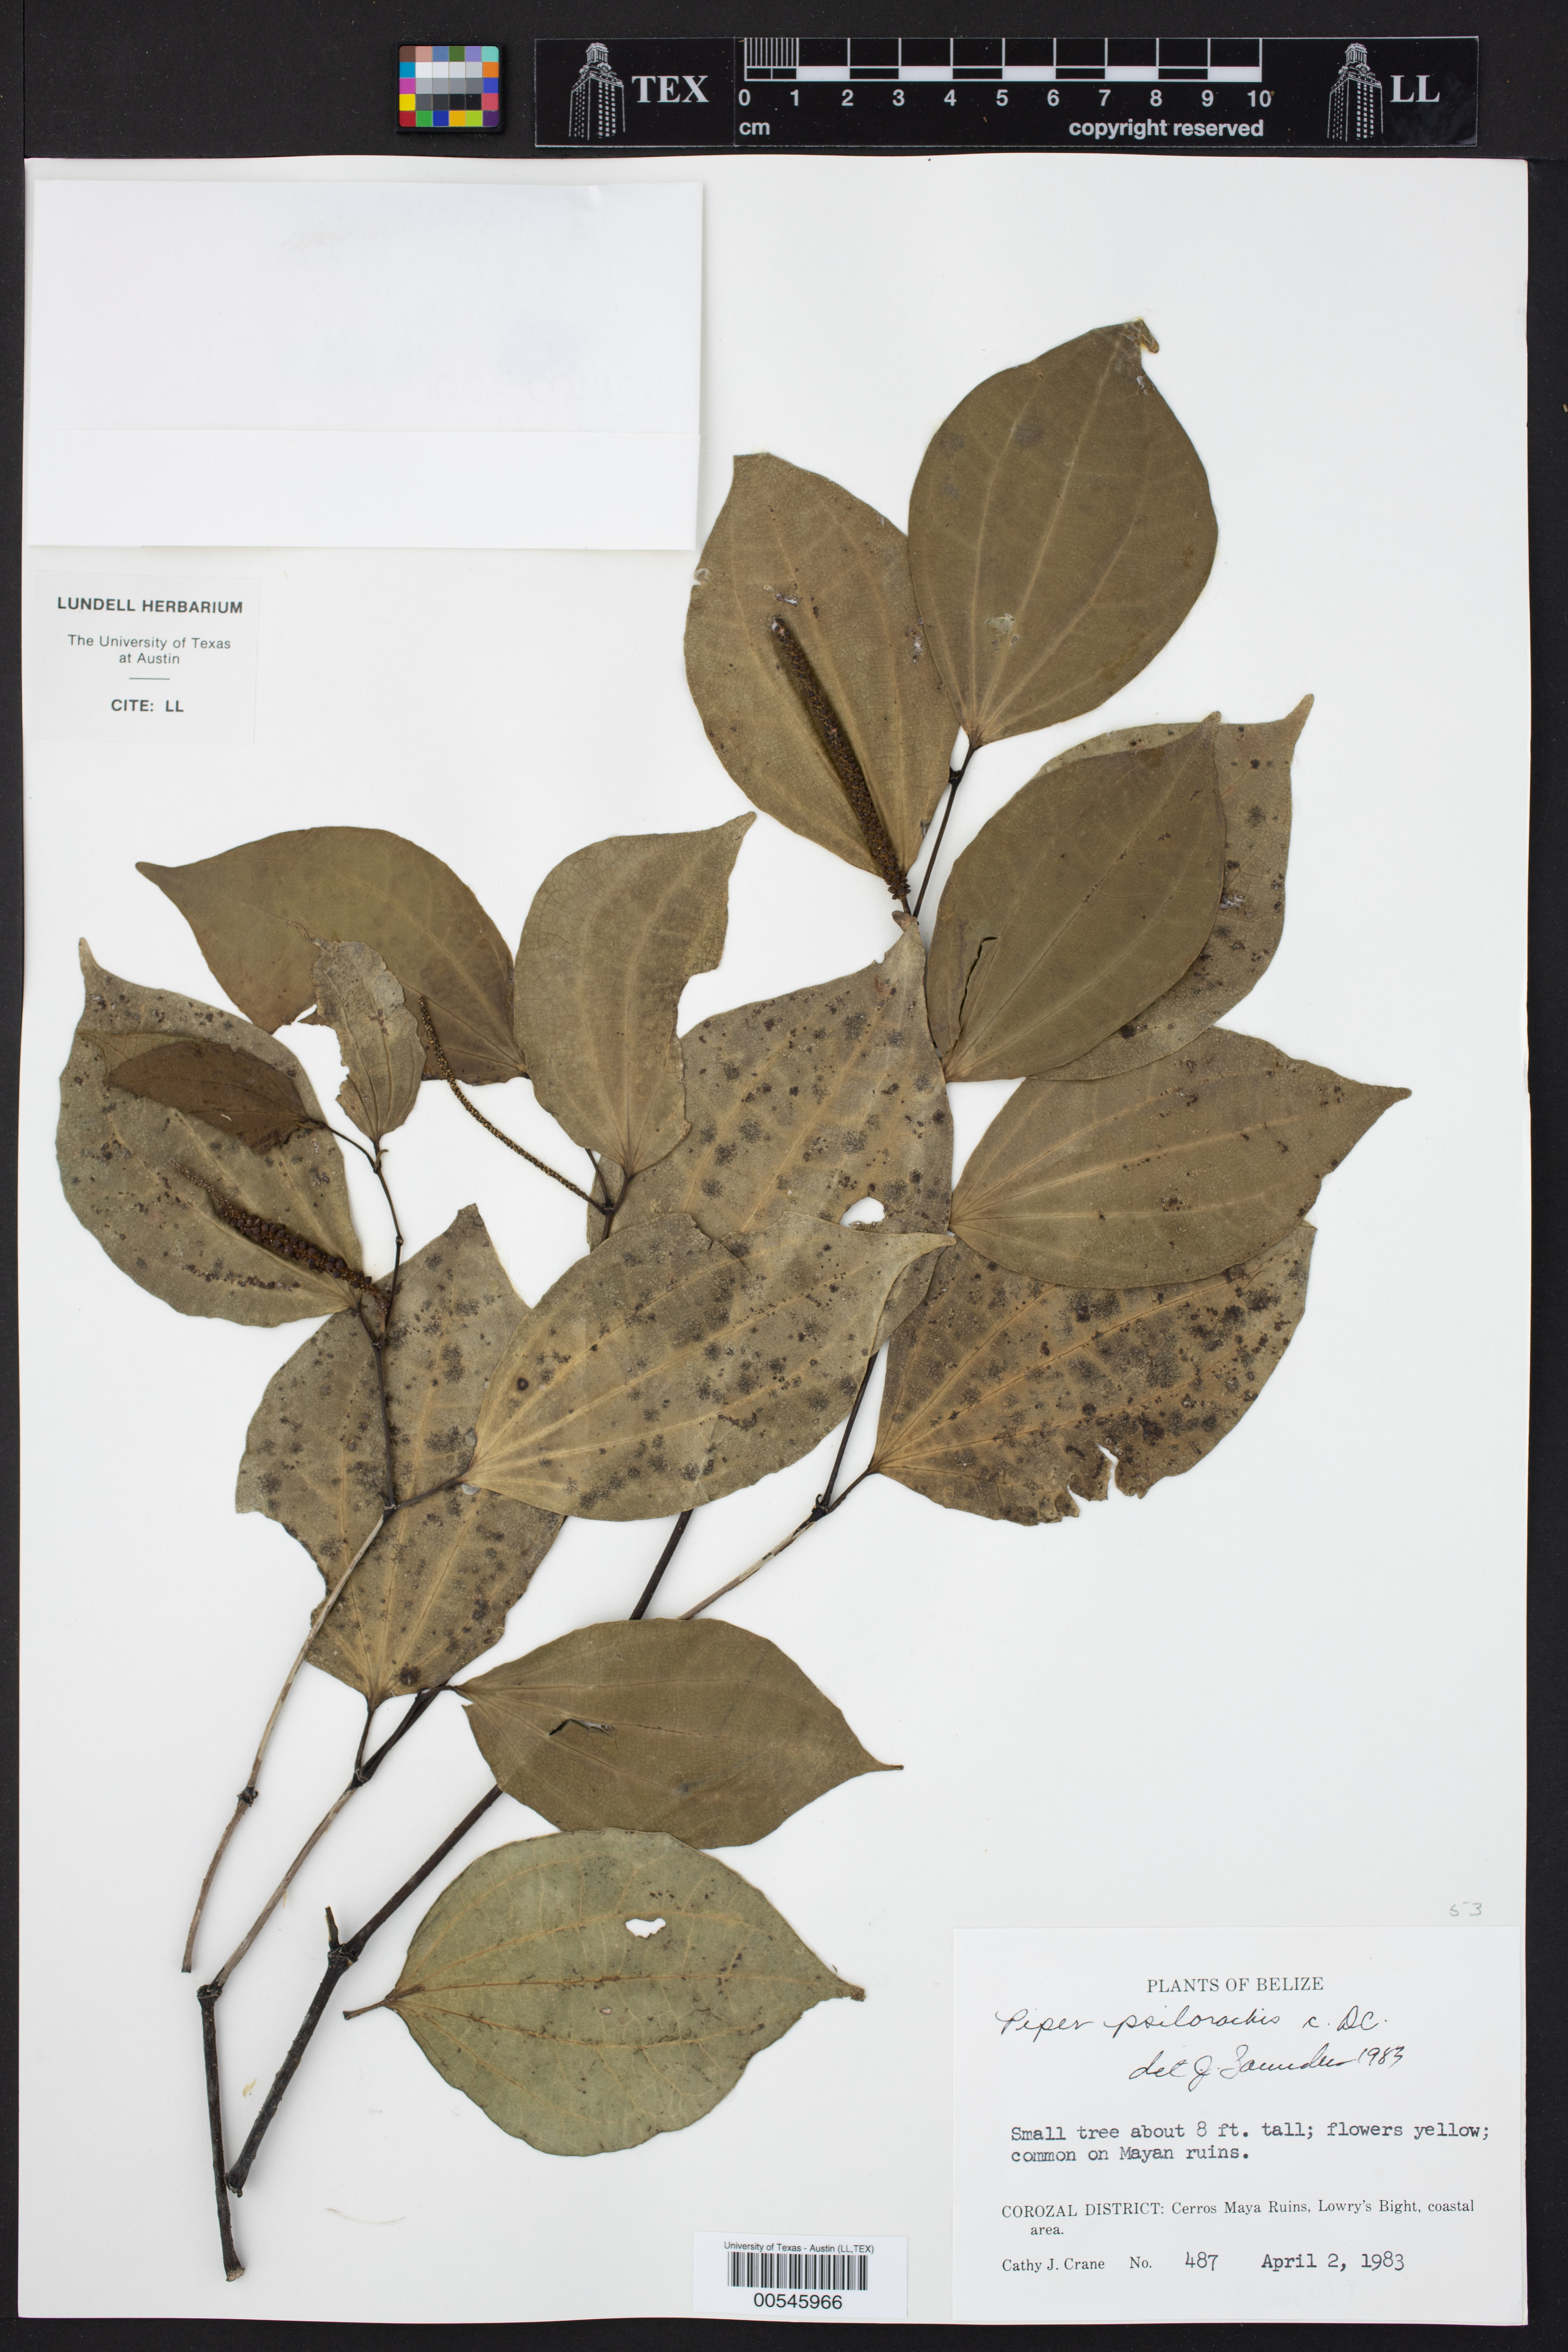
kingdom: Plantae
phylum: Tracheophyta
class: Magnoliopsida
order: Piperales
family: Piperaceae
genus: Piper
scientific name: Piper psilorhachis
